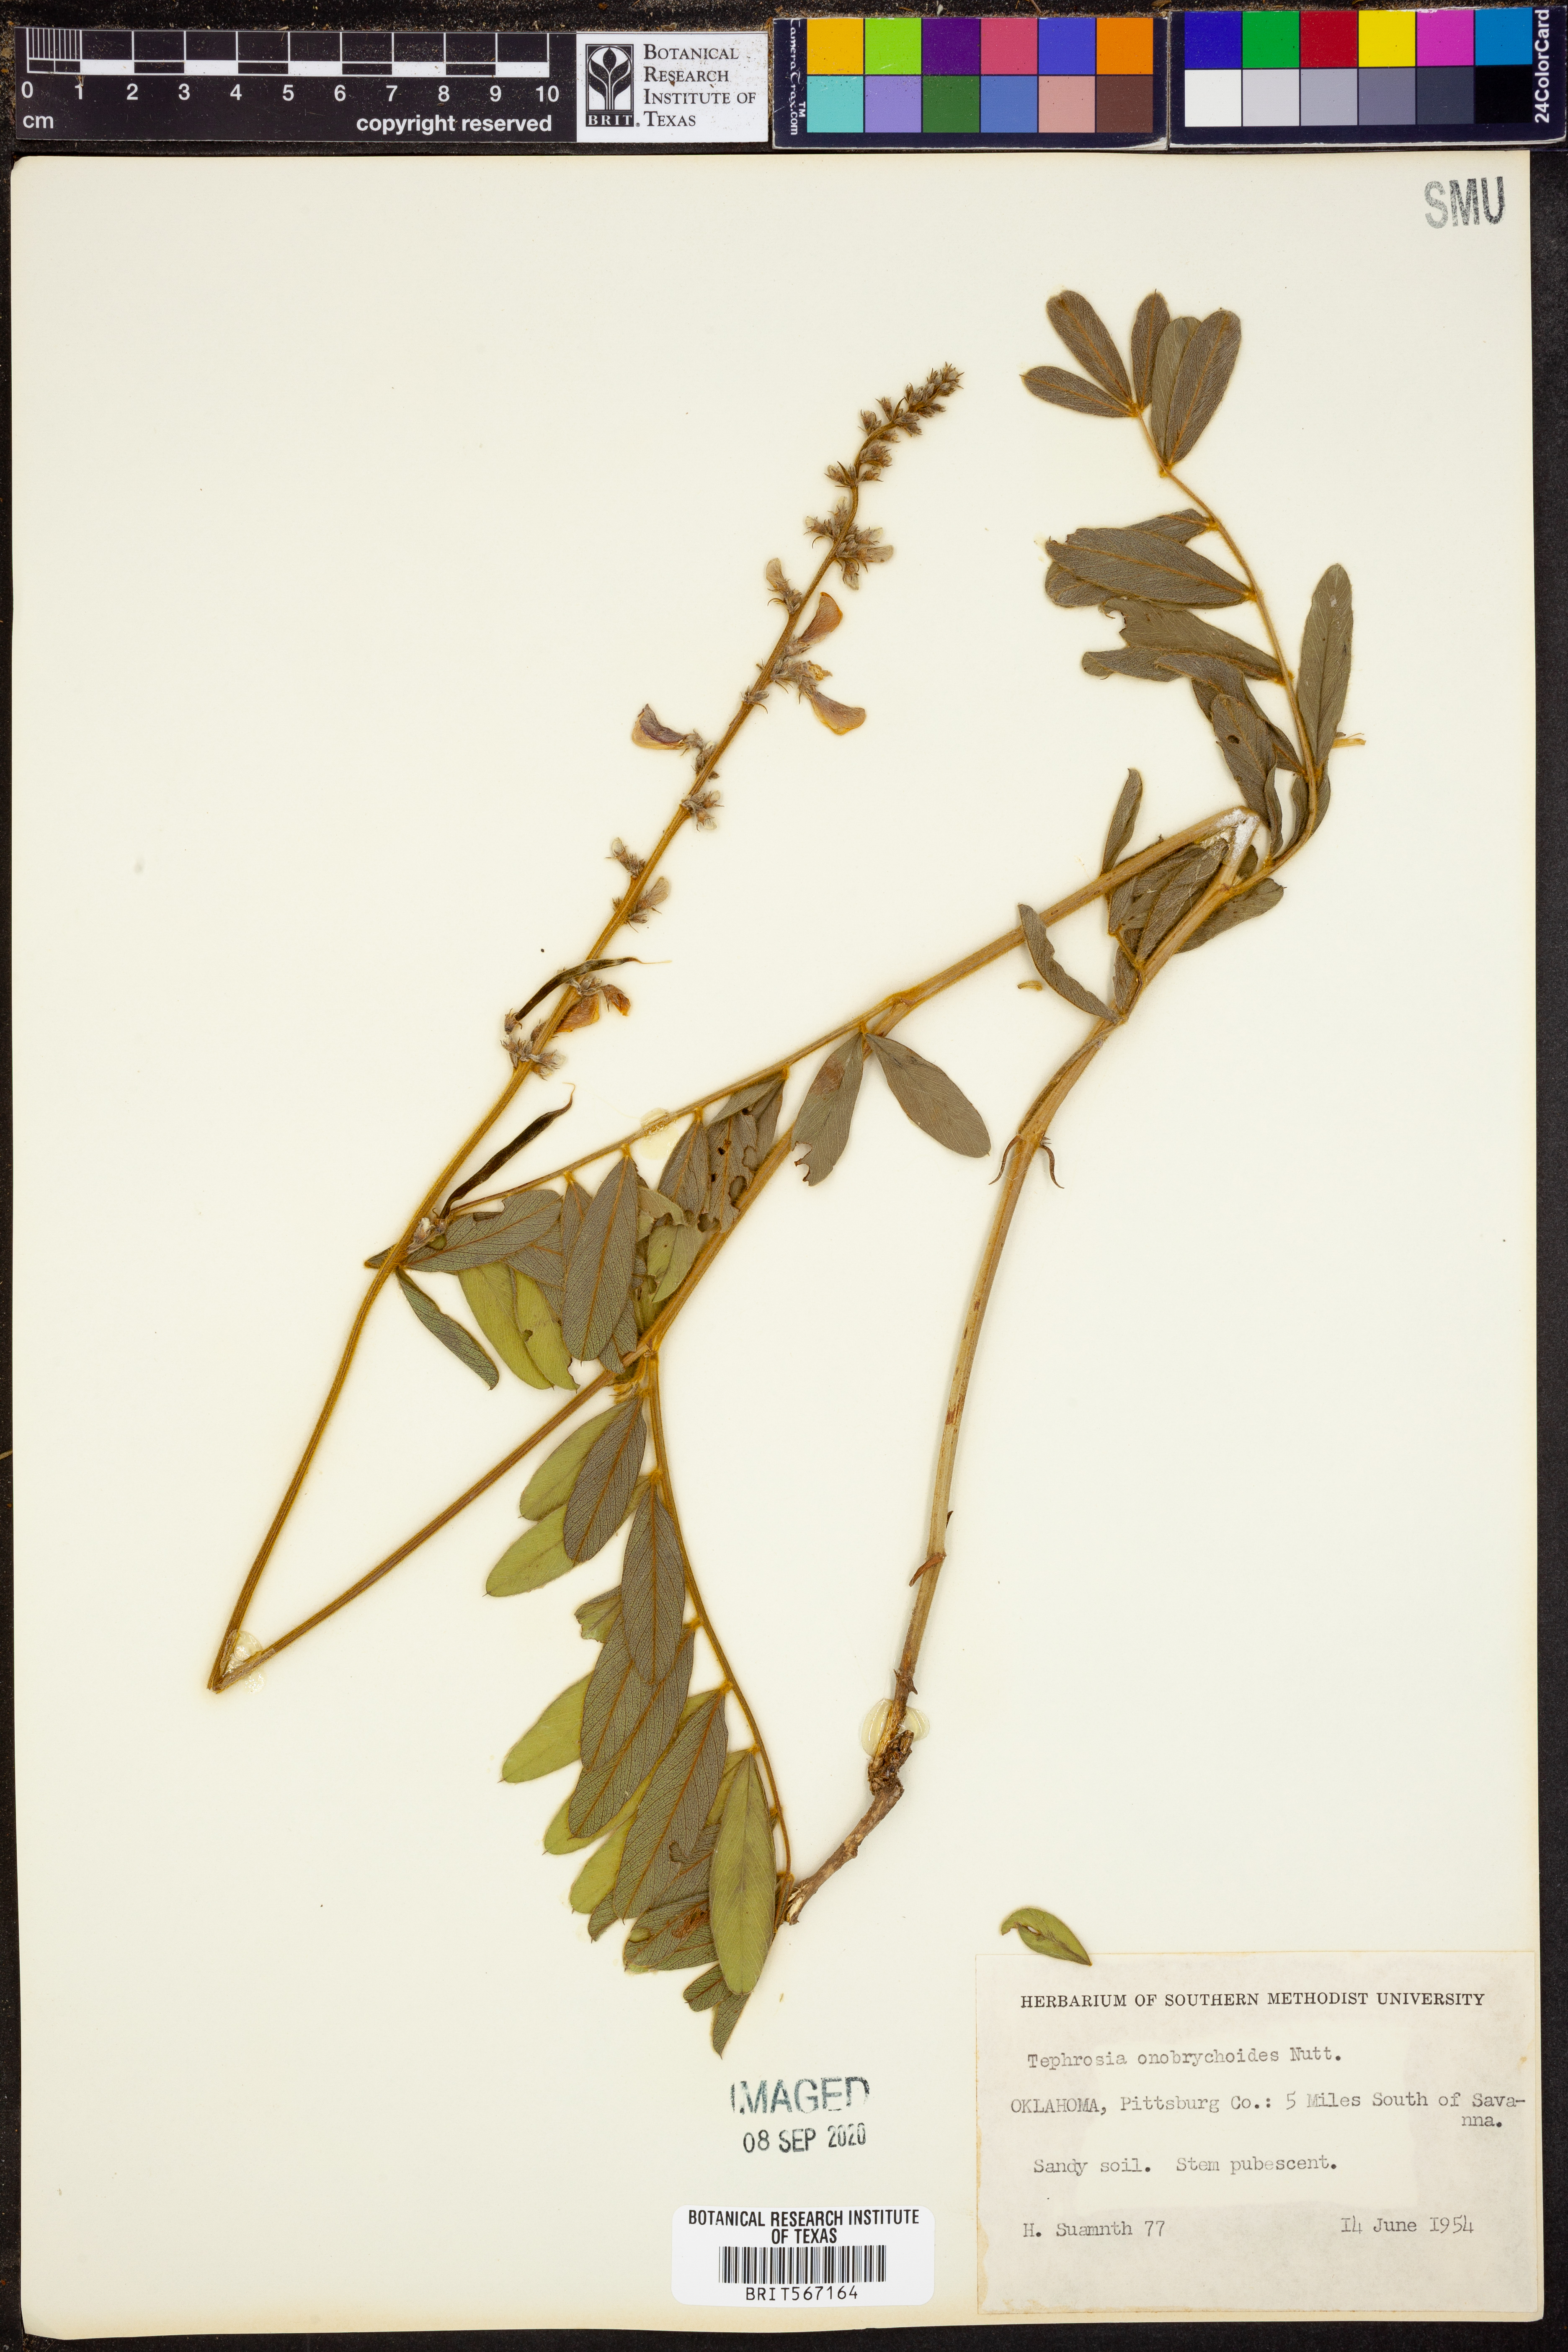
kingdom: Plantae
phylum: Tracheophyta
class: Magnoliopsida
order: Fabales
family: Fabaceae
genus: Tephrosia
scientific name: Tephrosia onobrychoides
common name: Multi-bloom hoary-pea
